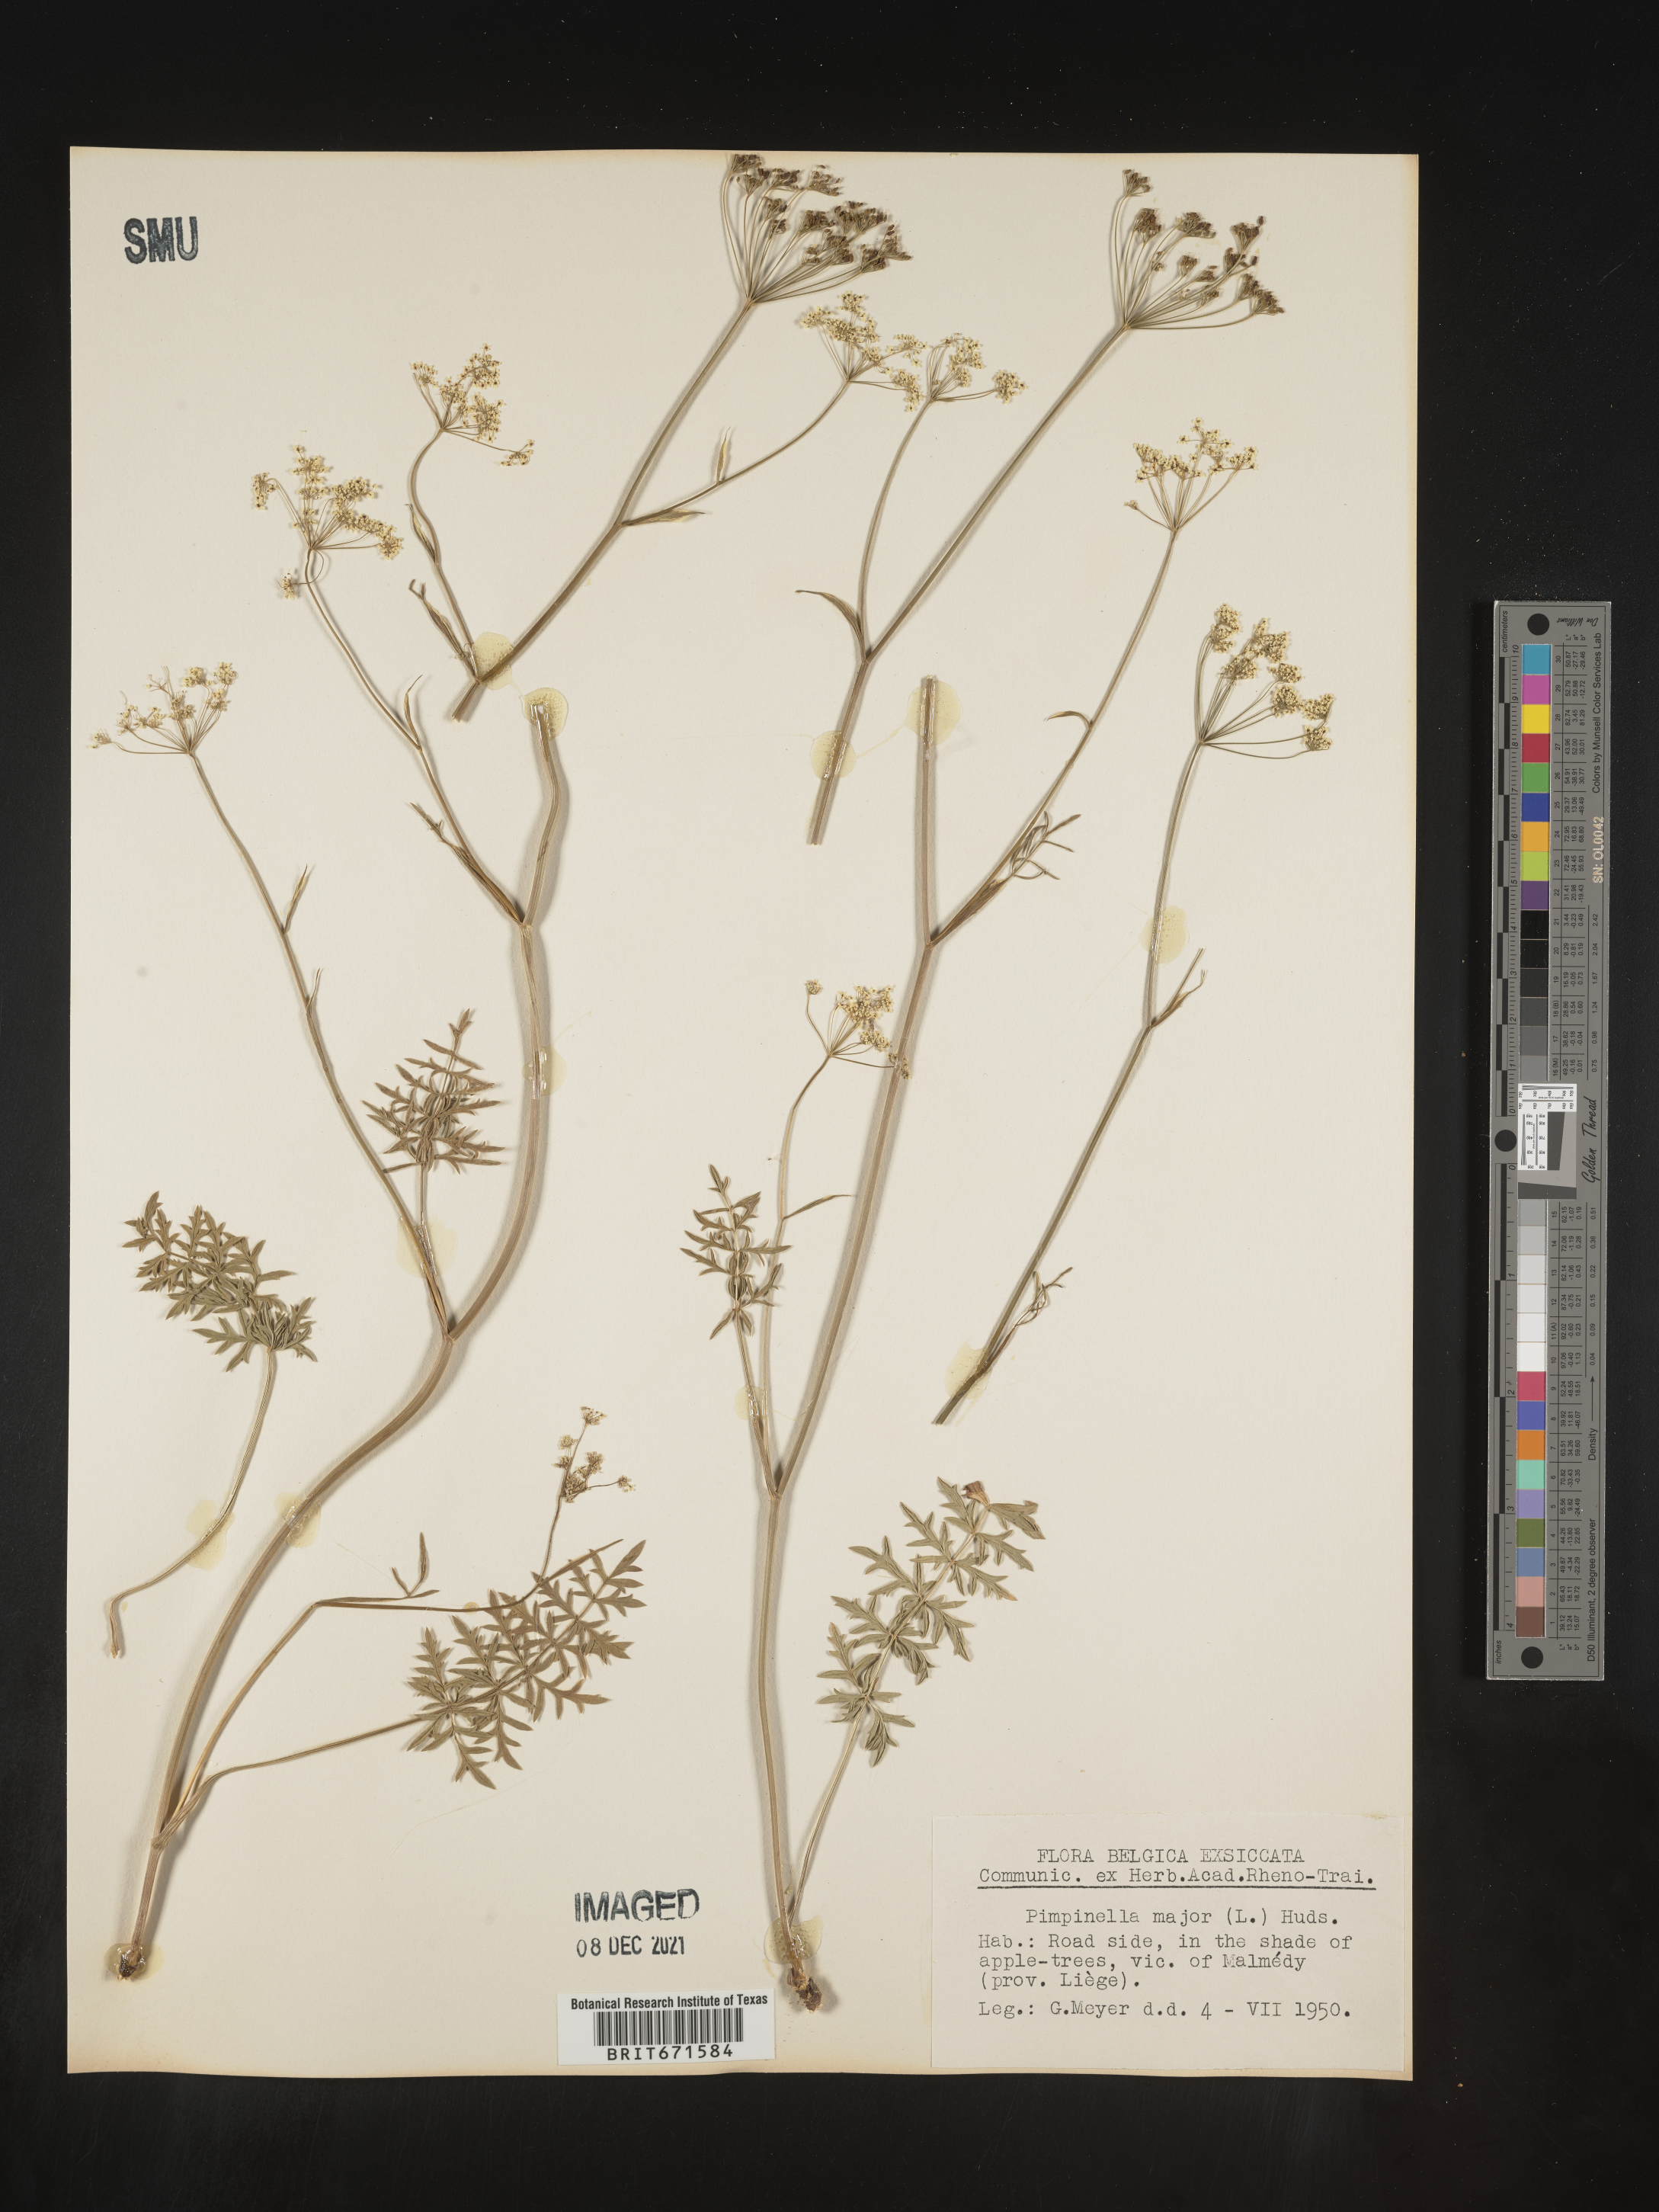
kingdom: Plantae
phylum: Tracheophyta
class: Magnoliopsida
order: Apiales
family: Apiaceae
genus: Pimpinella
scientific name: Pimpinella major
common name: Greater burnet-saxifrage
